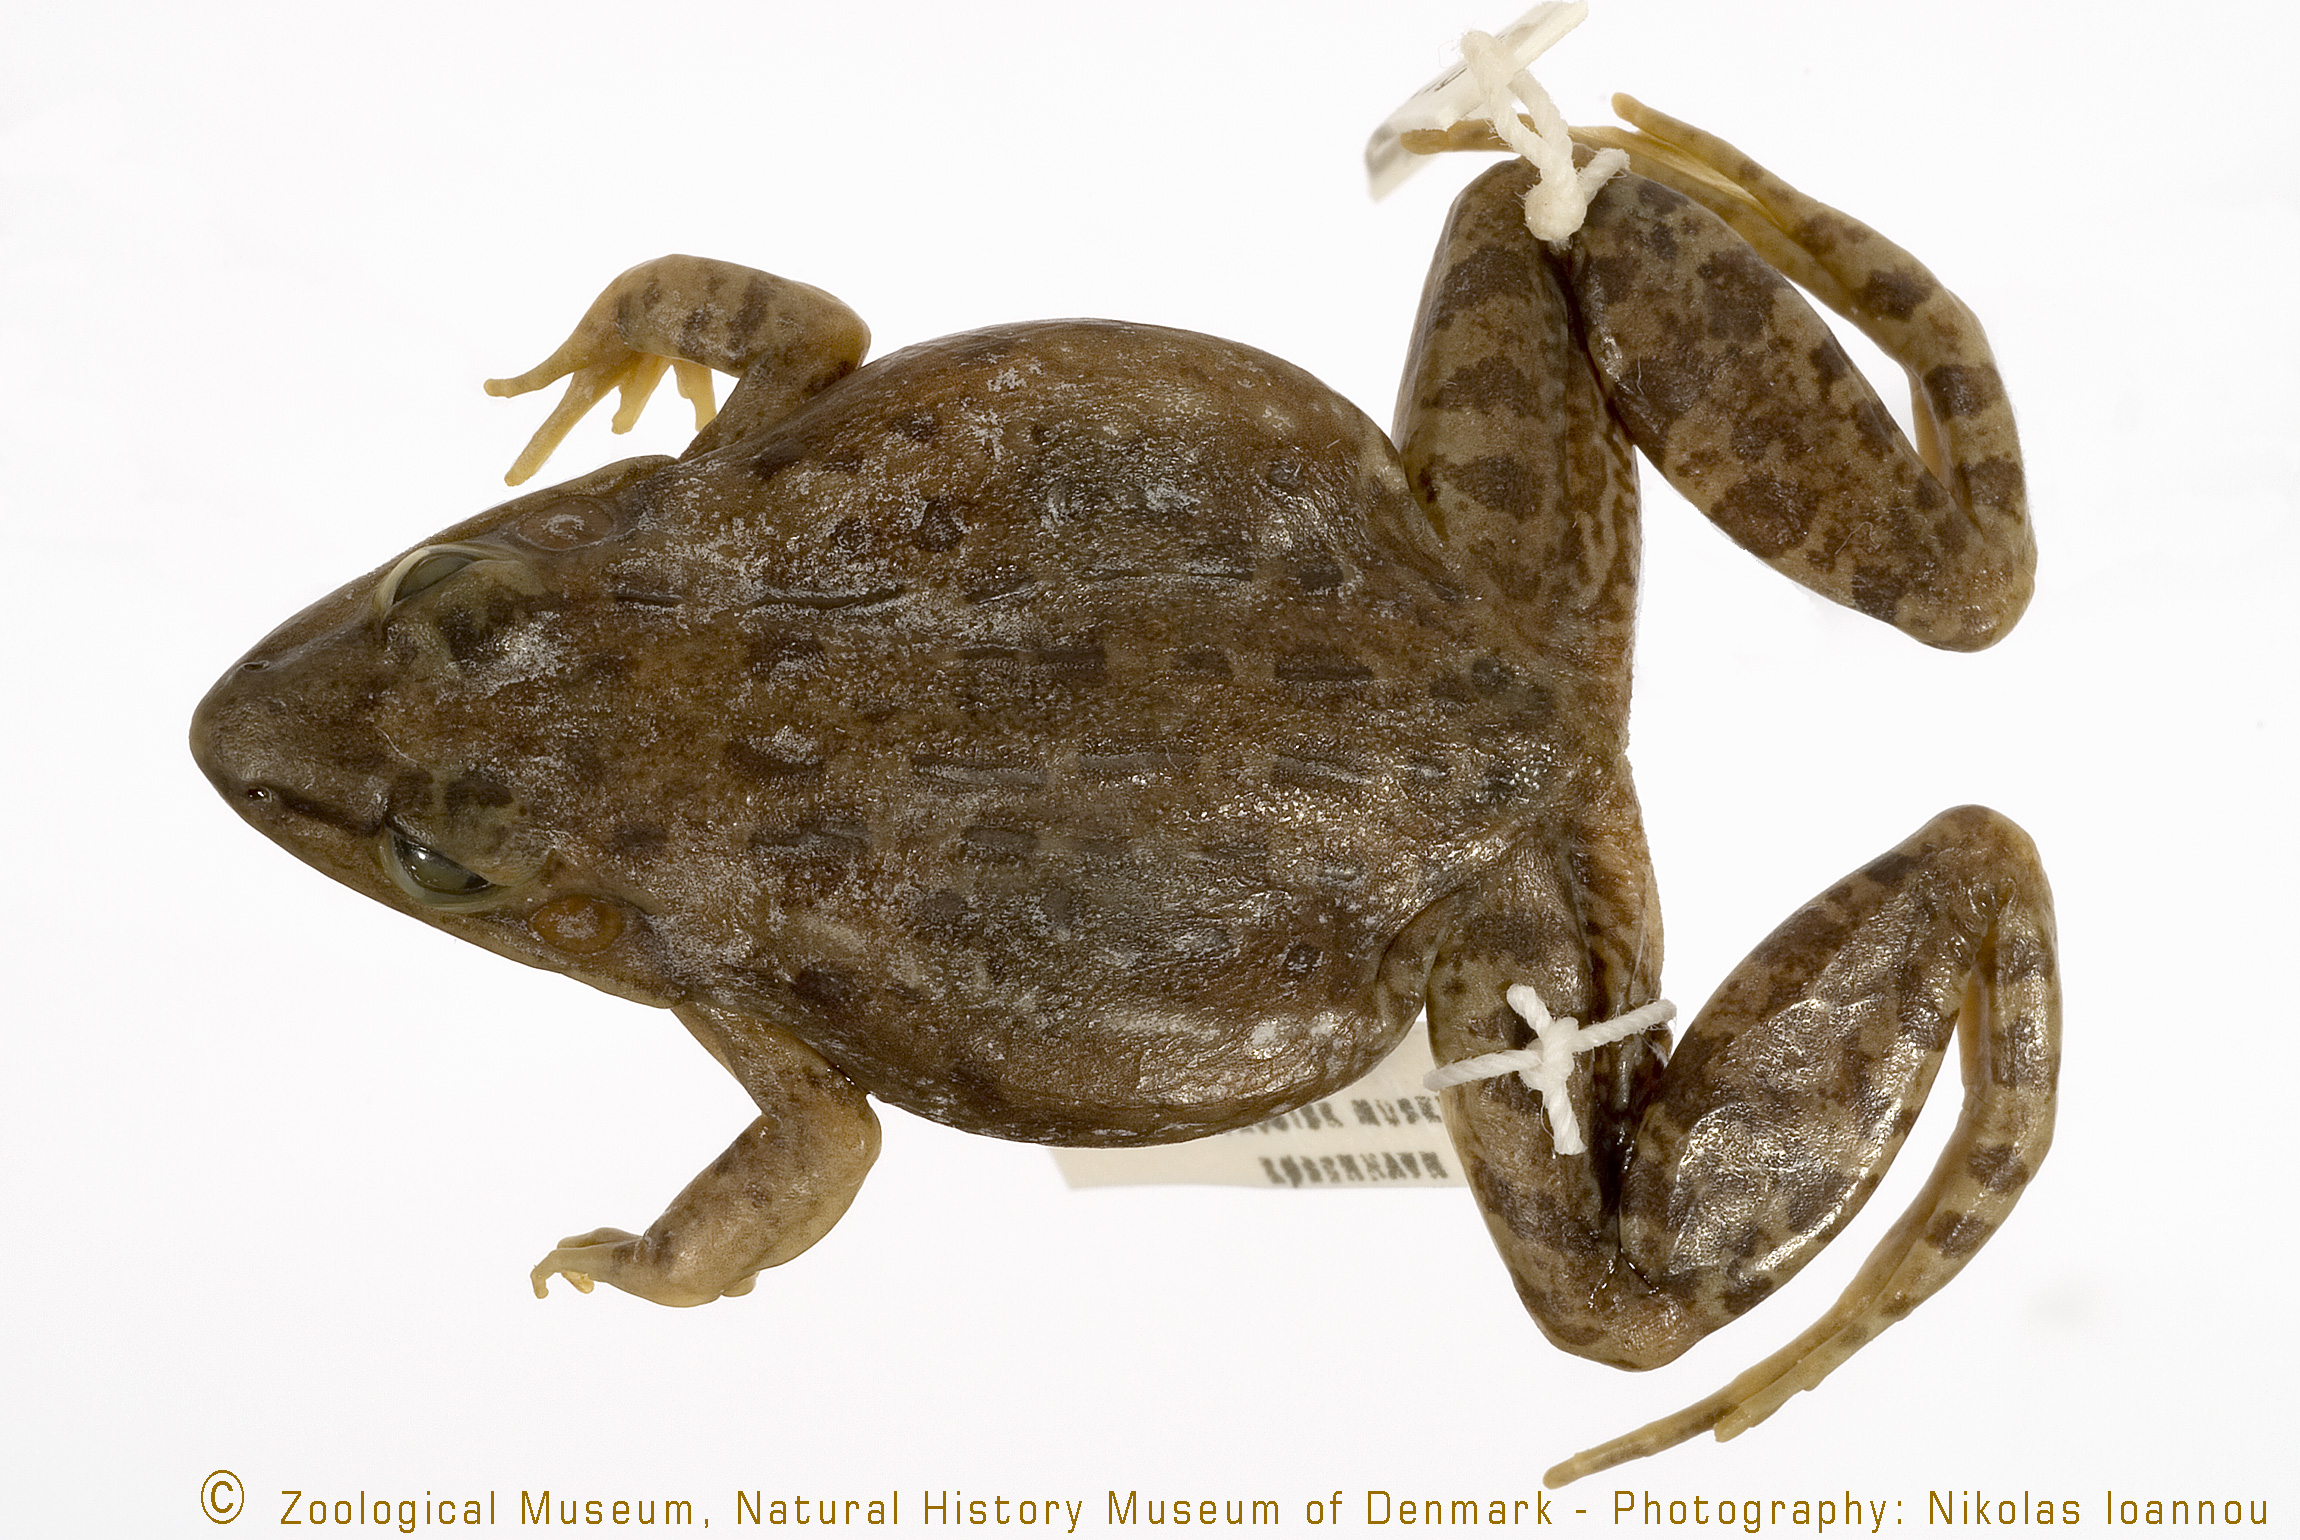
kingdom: Animalia
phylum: Chordata
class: Amphibia
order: Anura
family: Ptychadenidae
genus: Ptychadena
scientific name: Ptychadena uzungwensis
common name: Udzungwa ridged frog
